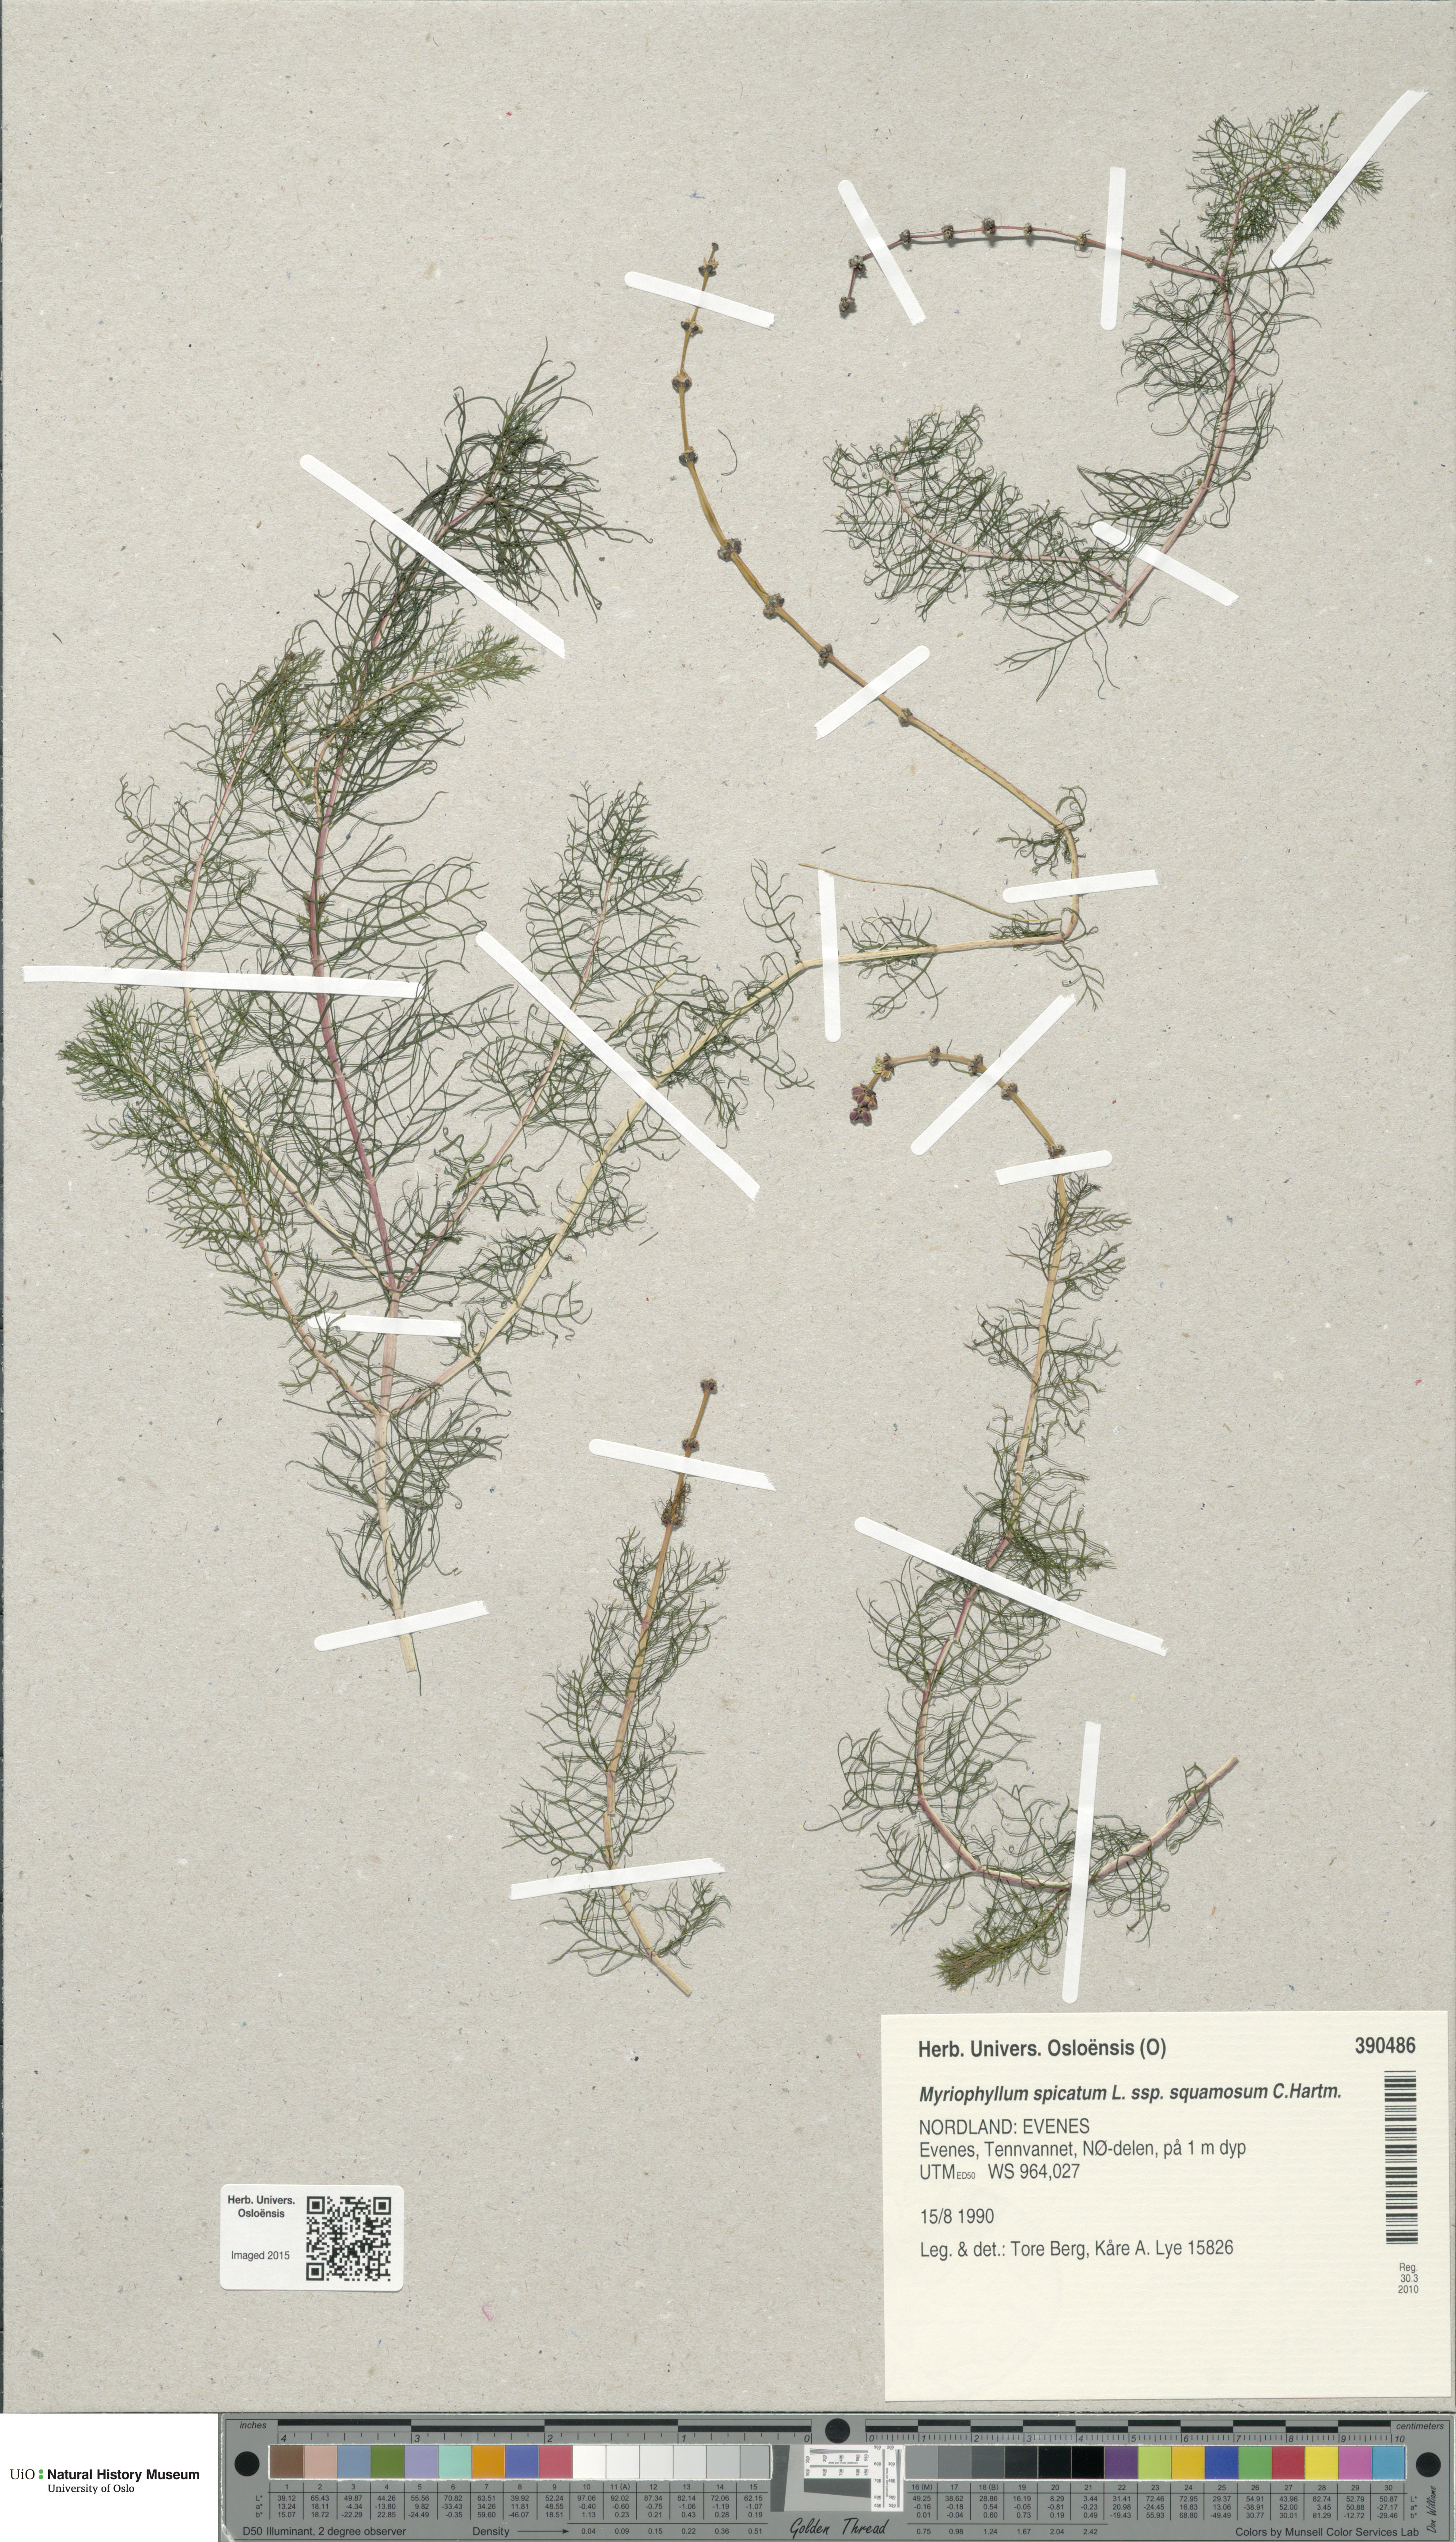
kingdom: Plantae
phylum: Tracheophyta
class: Magnoliopsida
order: Saxifragales
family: Haloragaceae
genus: Myriophyllum
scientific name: Myriophyllum sibiricum
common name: Siberian water-milfoil
